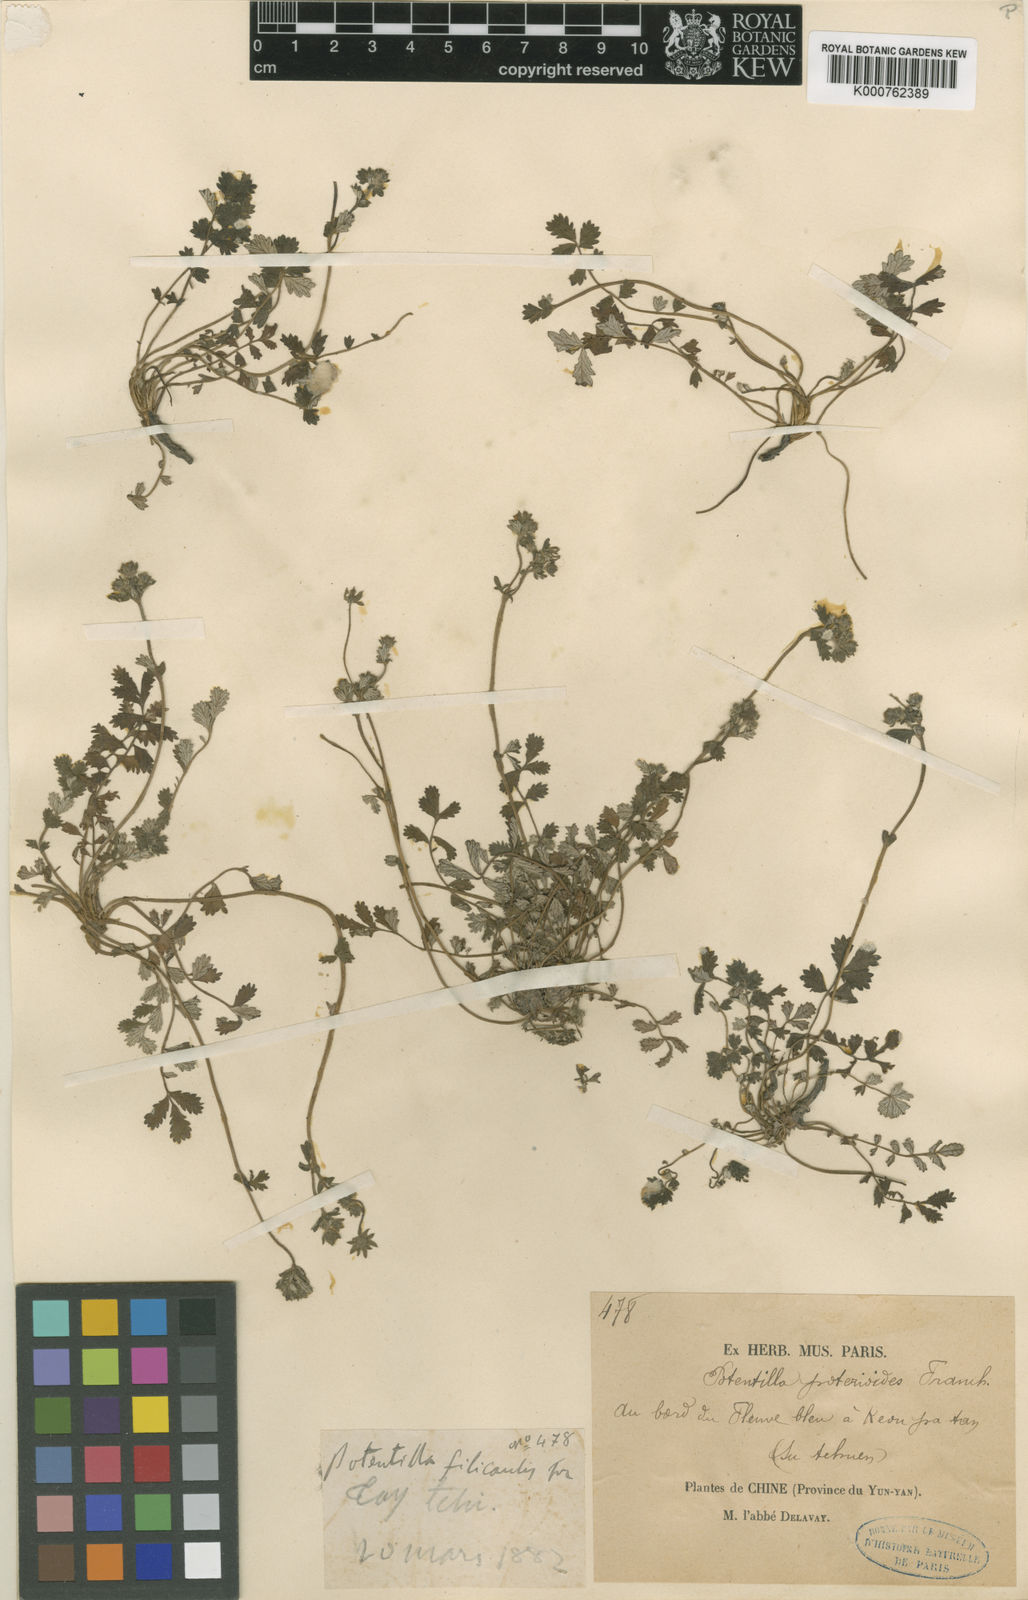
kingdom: Plantae
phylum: Tracheophyta
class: Magnoliopsida
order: Rosales
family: Rosaceae
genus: Potentilla
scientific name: Potentilla poterioides
